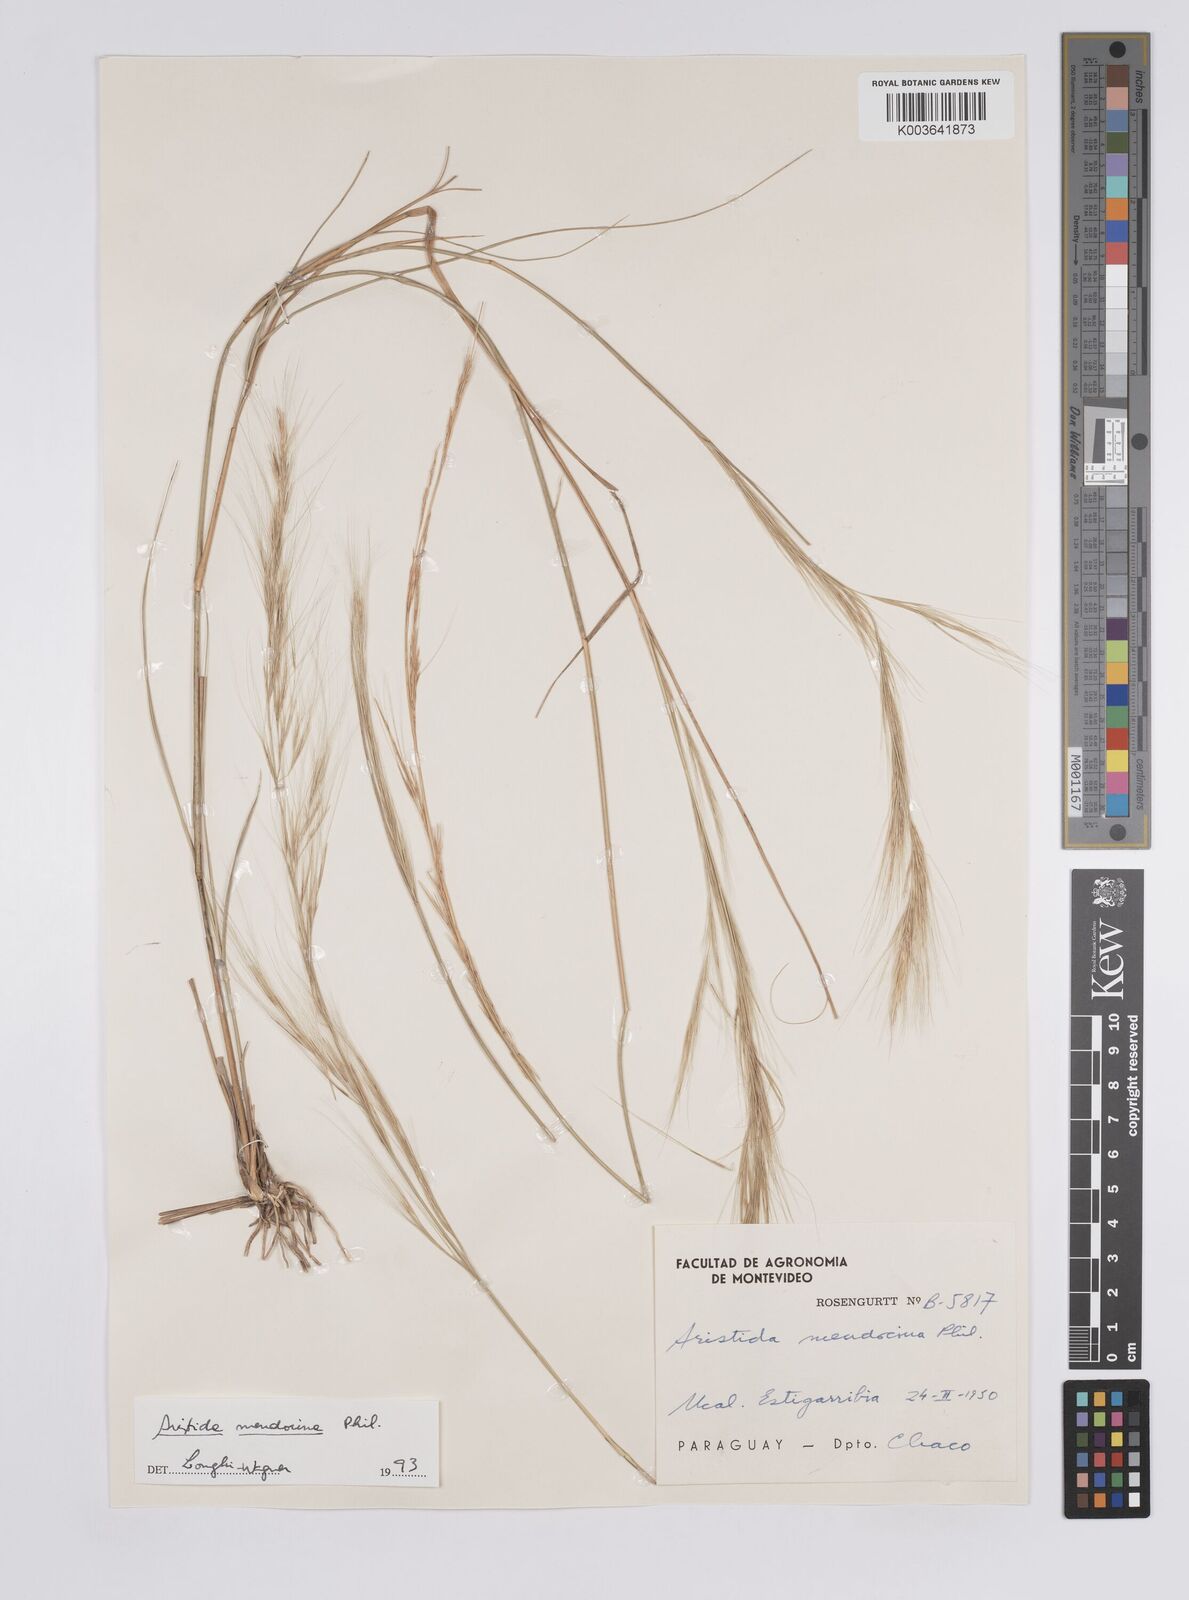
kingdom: Plantae
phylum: Tracheophyta
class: Liliopsida
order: Poales
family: Poaceae
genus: Aristida
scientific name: Aristida mendocina
